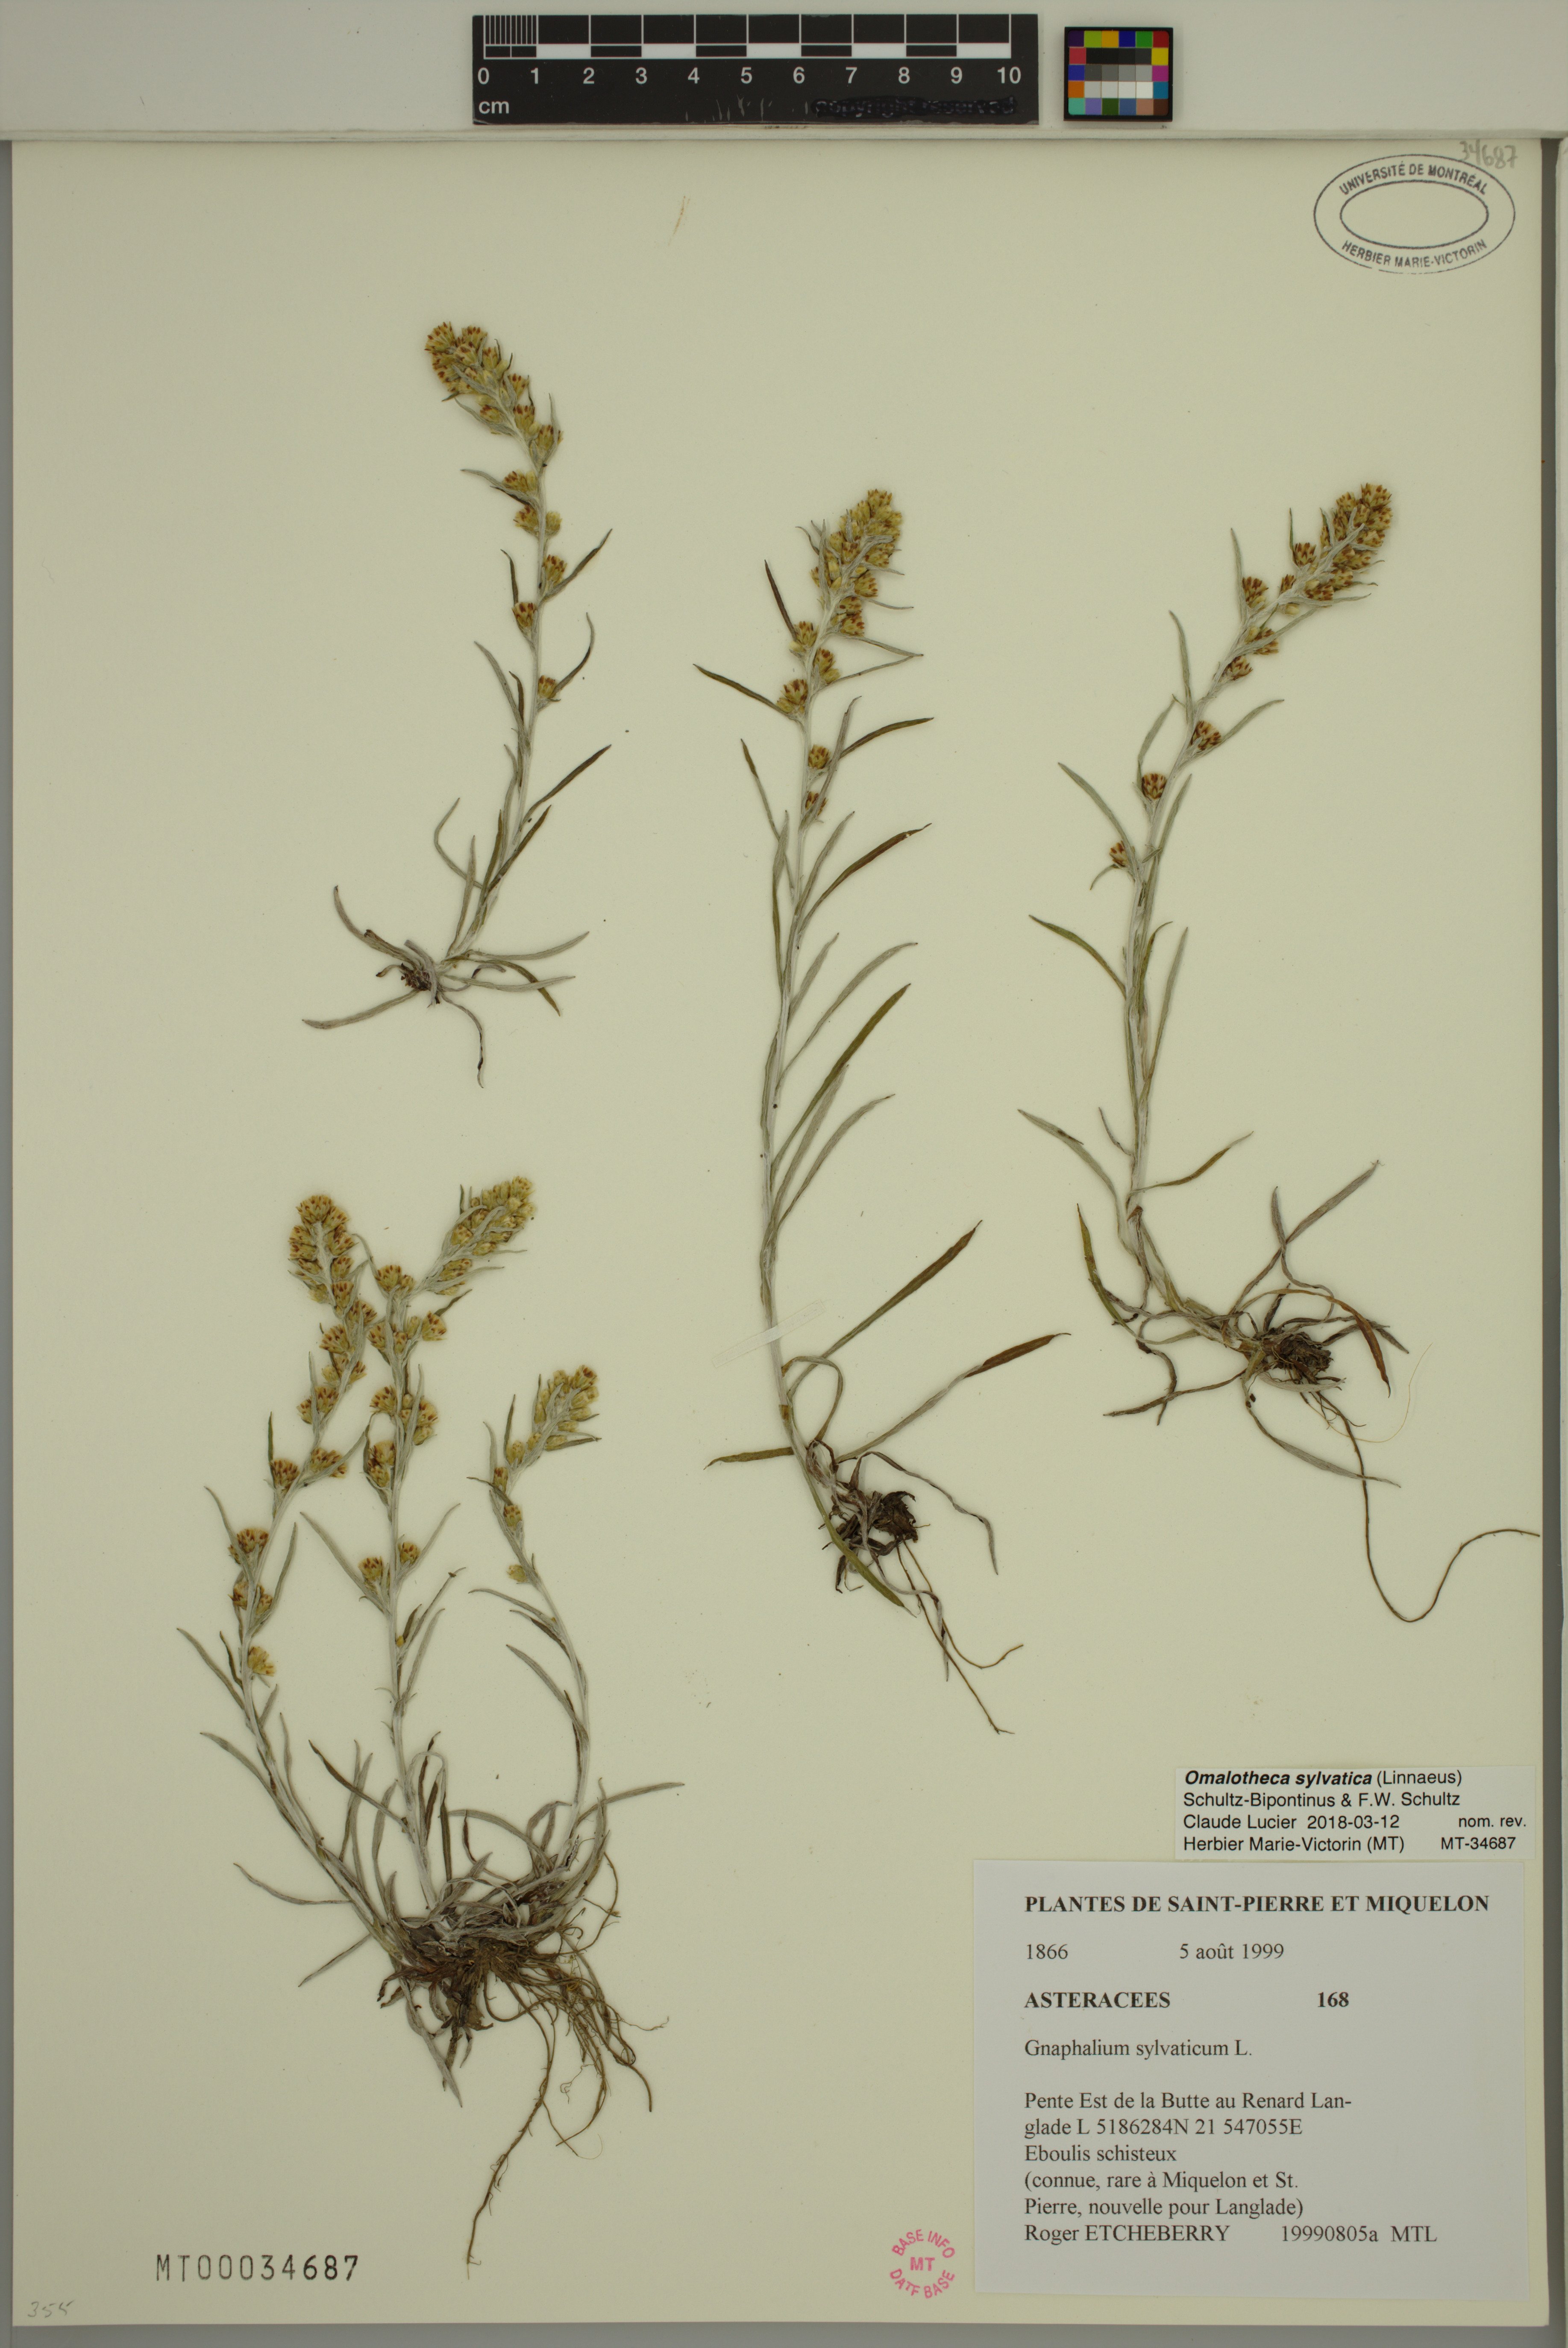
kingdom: Plantae
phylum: Tracheophyta
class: Magnoliopsida
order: Asterales
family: Asteraceae
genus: Omalotheca
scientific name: Omalotheca sylvatica
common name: Heath cudweed
